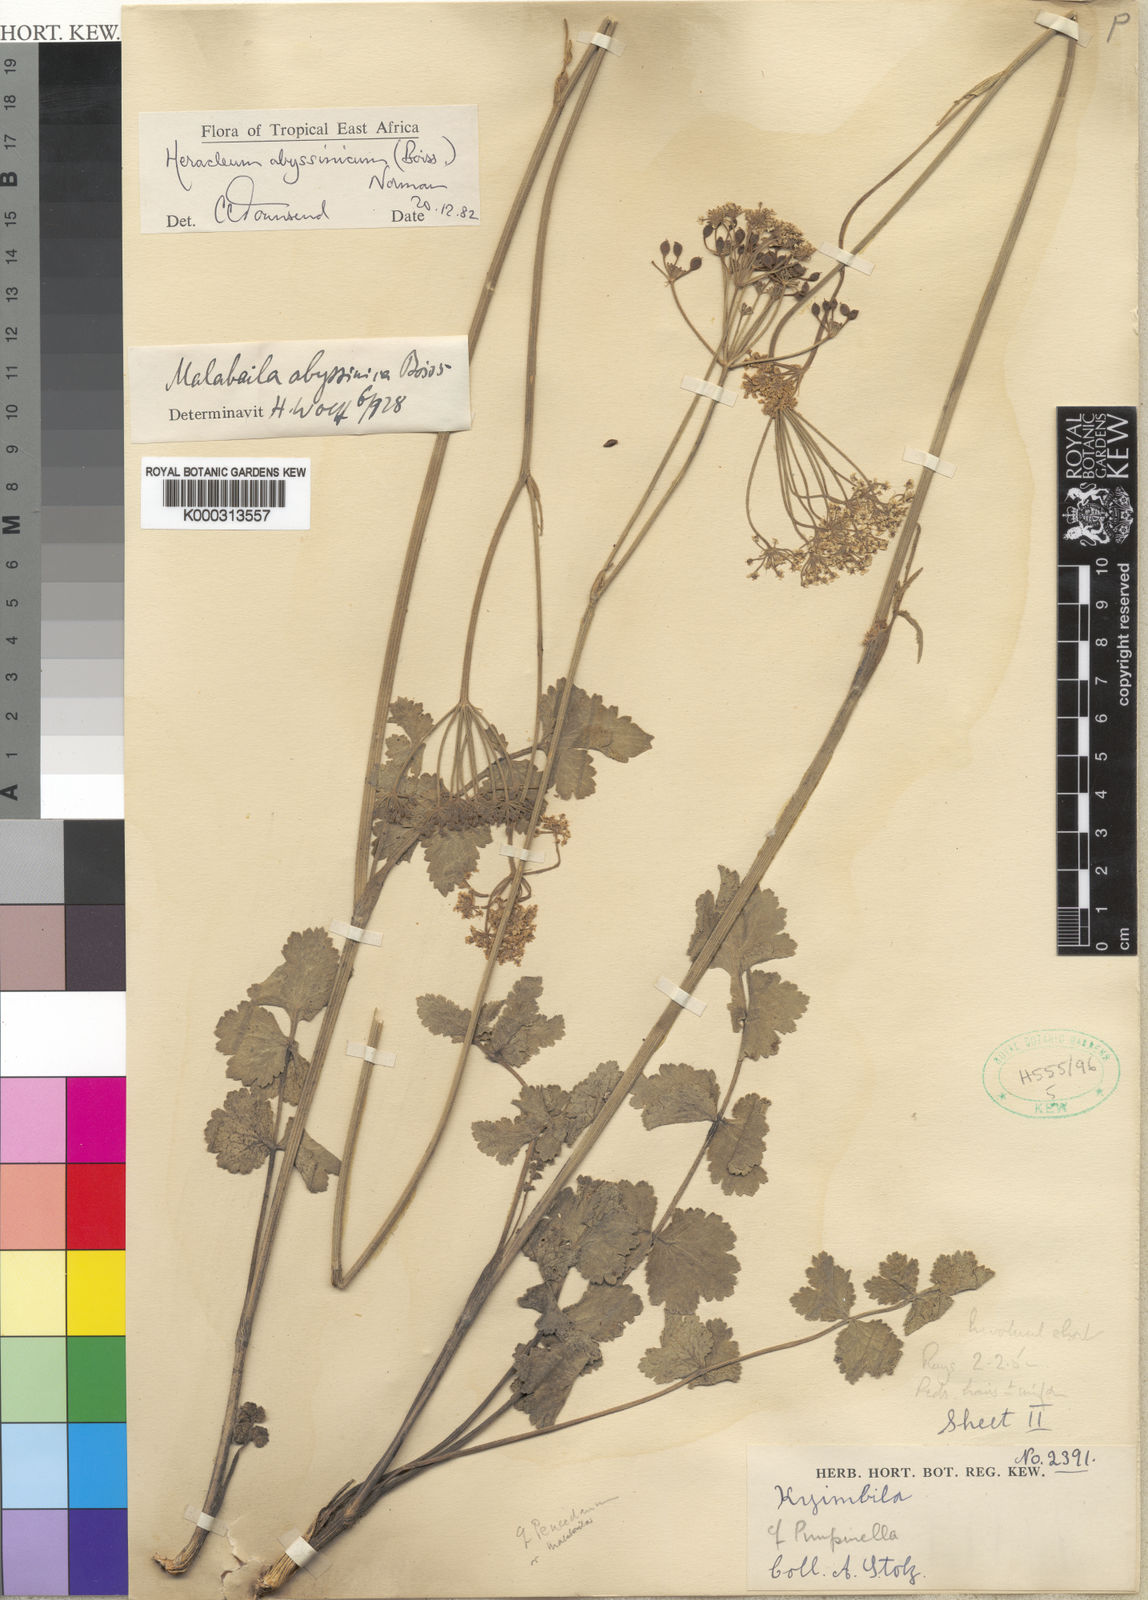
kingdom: Plantae
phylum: Tracheophyta
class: Magnoliopsida
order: Apiales
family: Apiaceae
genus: Heracleum
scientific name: Heracleum abyssinicum
